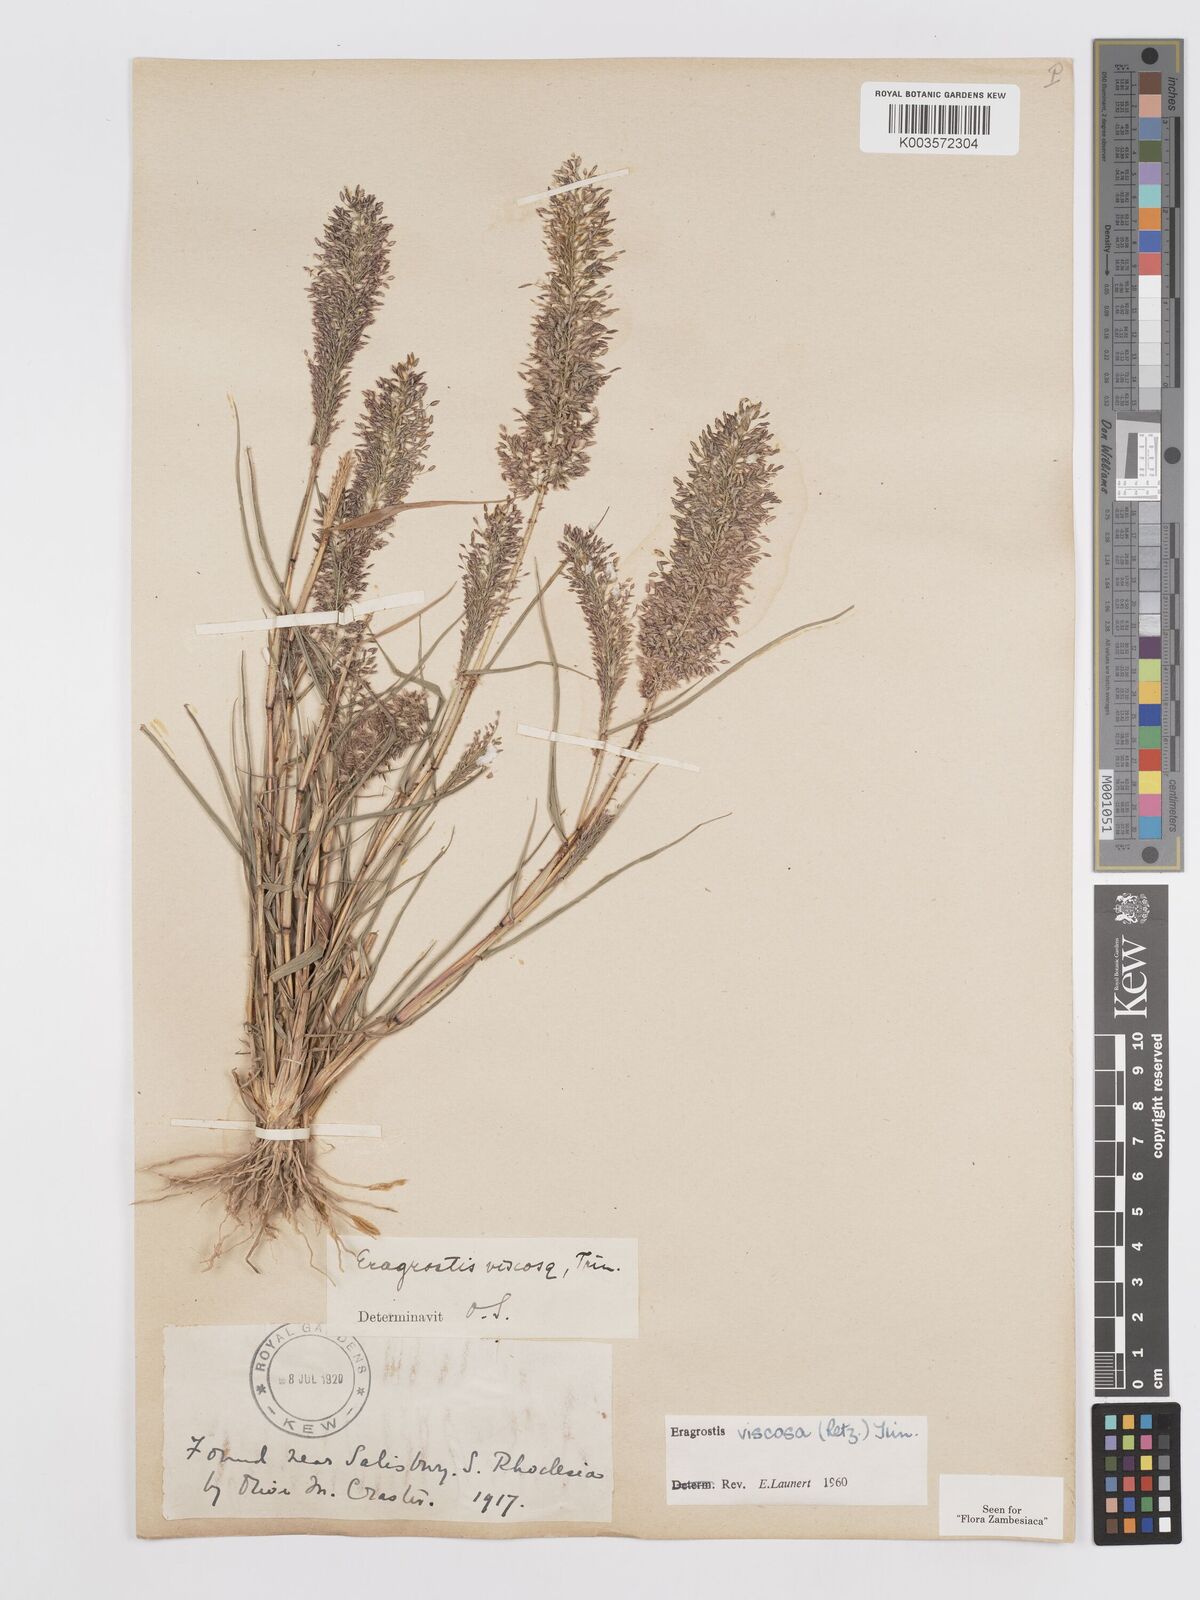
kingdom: Plantae
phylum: Tracheophyta
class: Liliopsida
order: Poales
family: Poaceae
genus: Eragrostis
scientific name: Eragrostis
